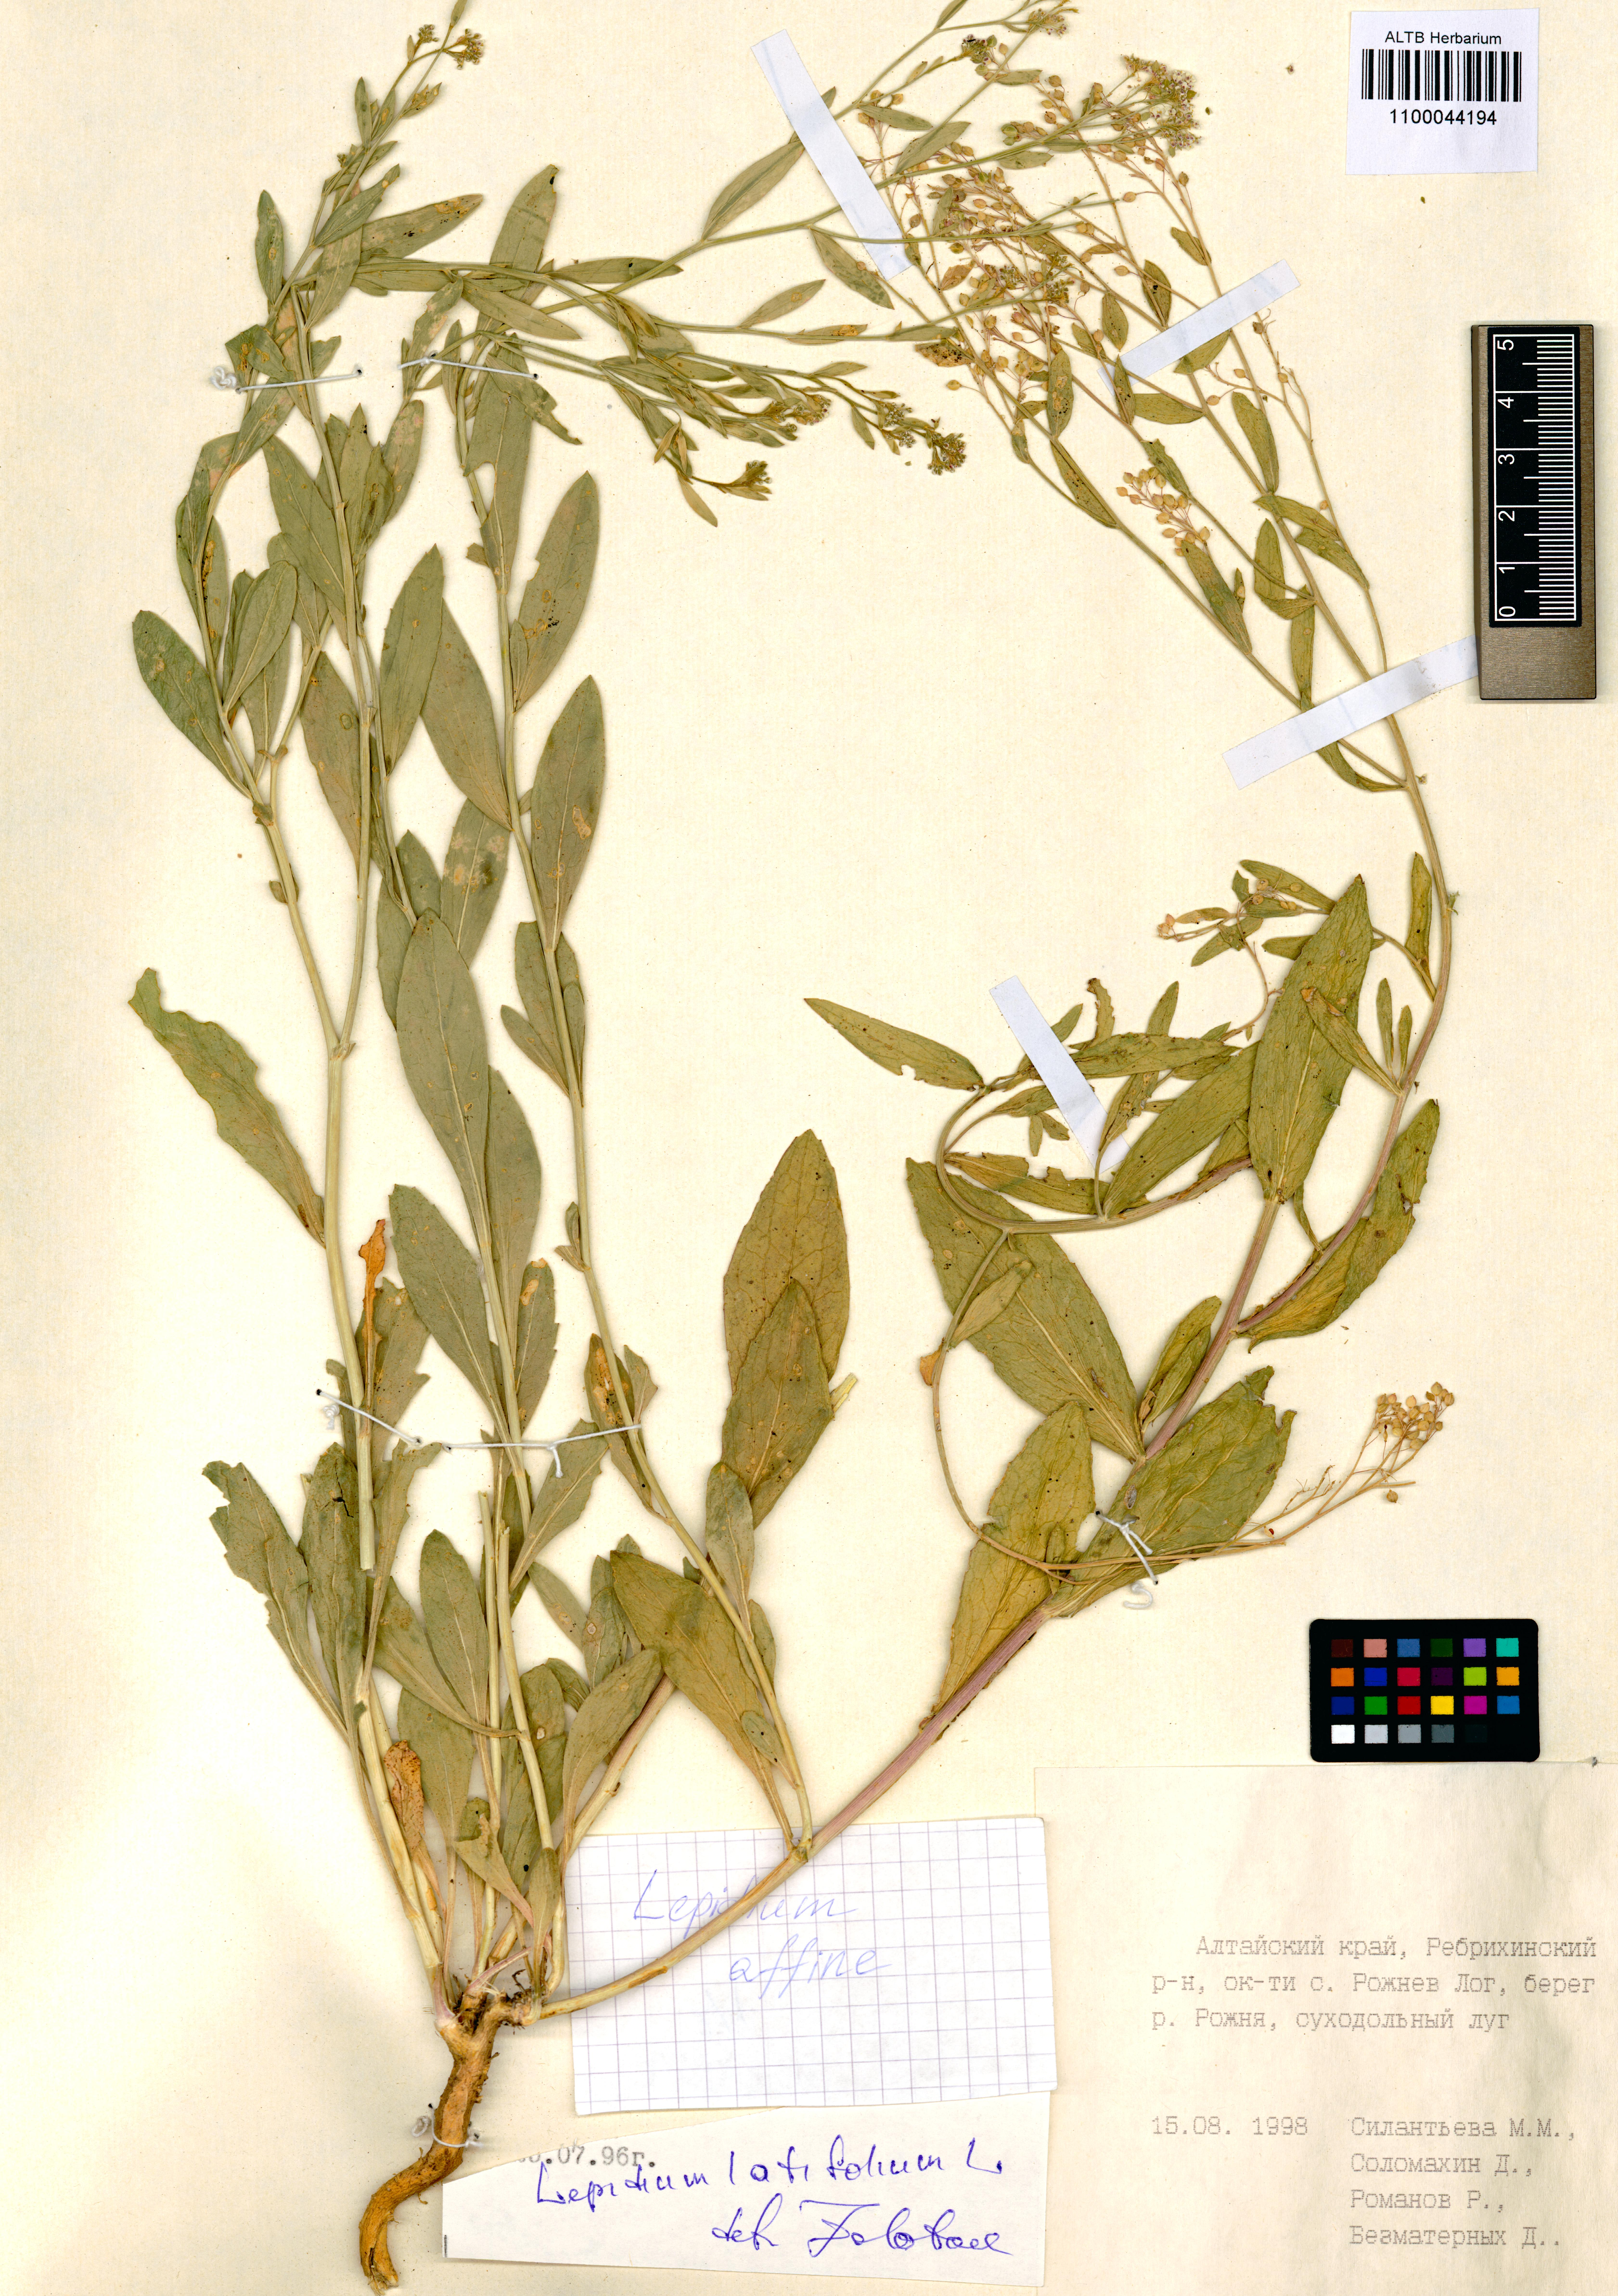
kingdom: Plantae
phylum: Tracheophyta
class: Magnoliopsida
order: Brassicales
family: Brassicaceae
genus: Lepidium
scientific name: Lepidium latifolium
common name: Dittander
